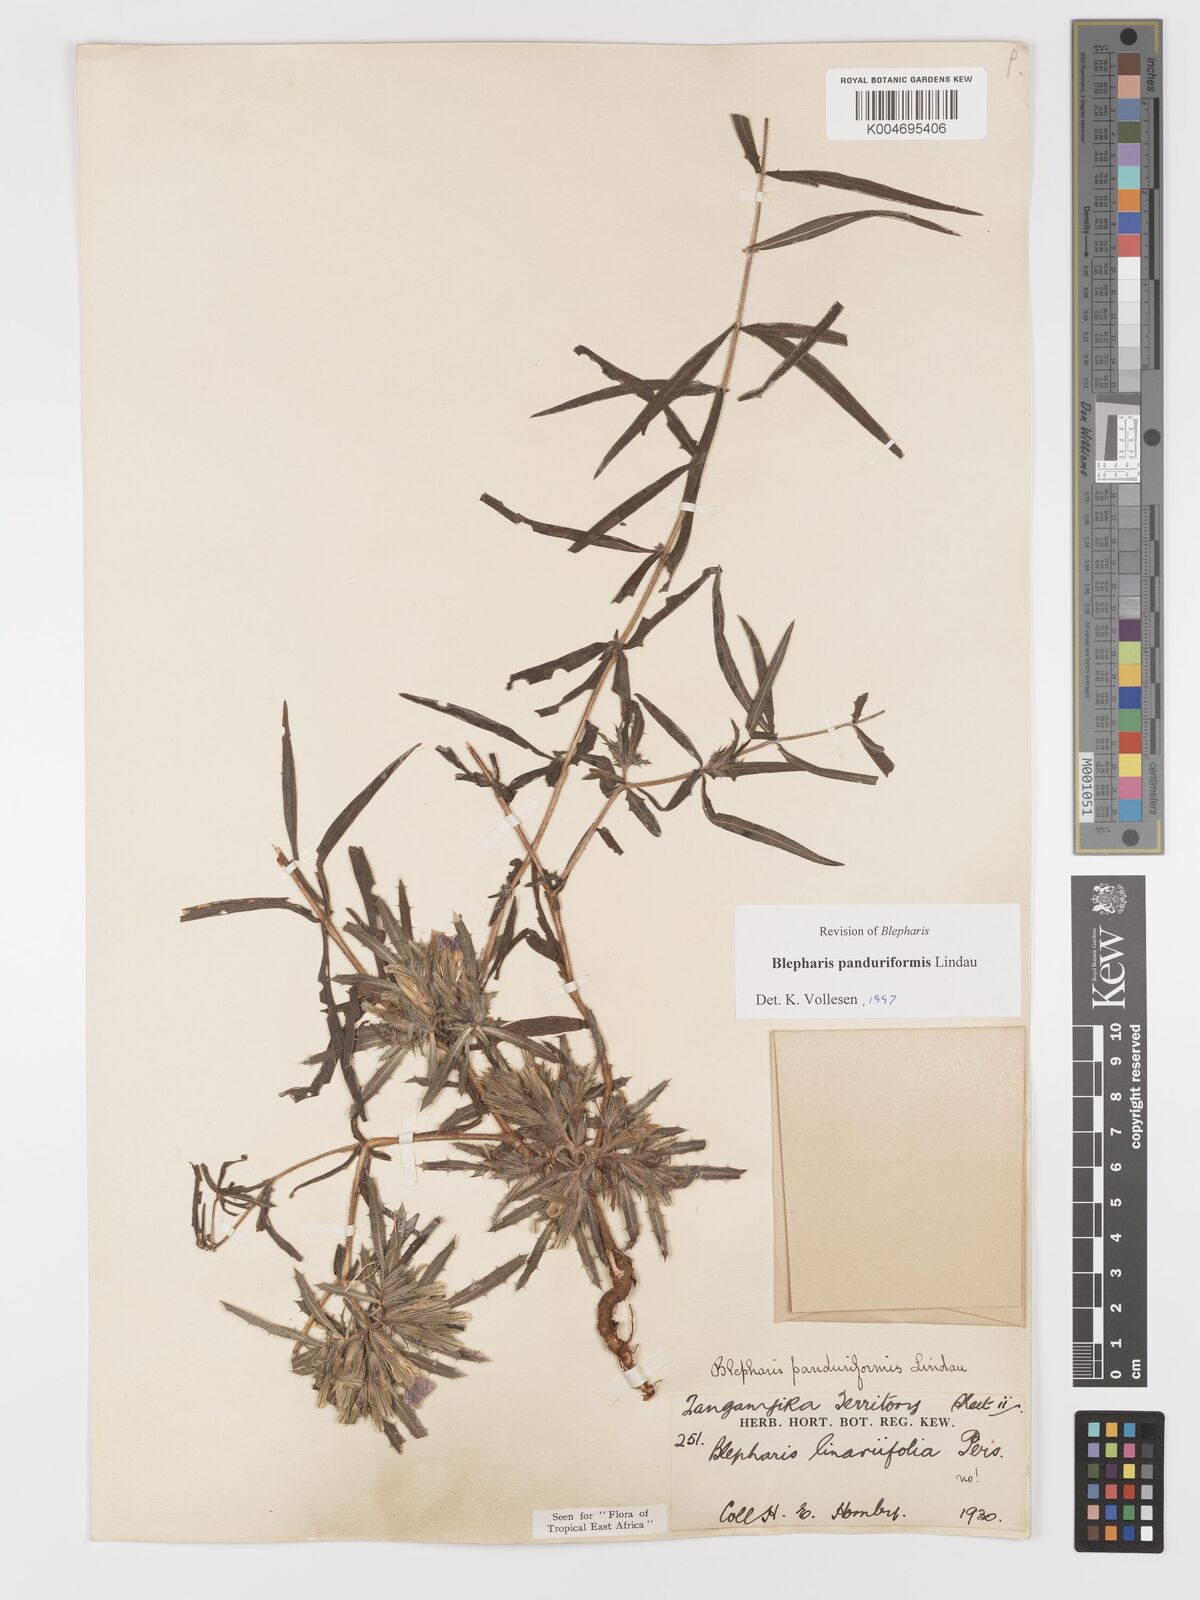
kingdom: Plantae
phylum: Tracheophyta
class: Magnoliopsida
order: Lamiales
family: Acanthaceae
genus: Blepharis
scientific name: Blepharis panduriformis
